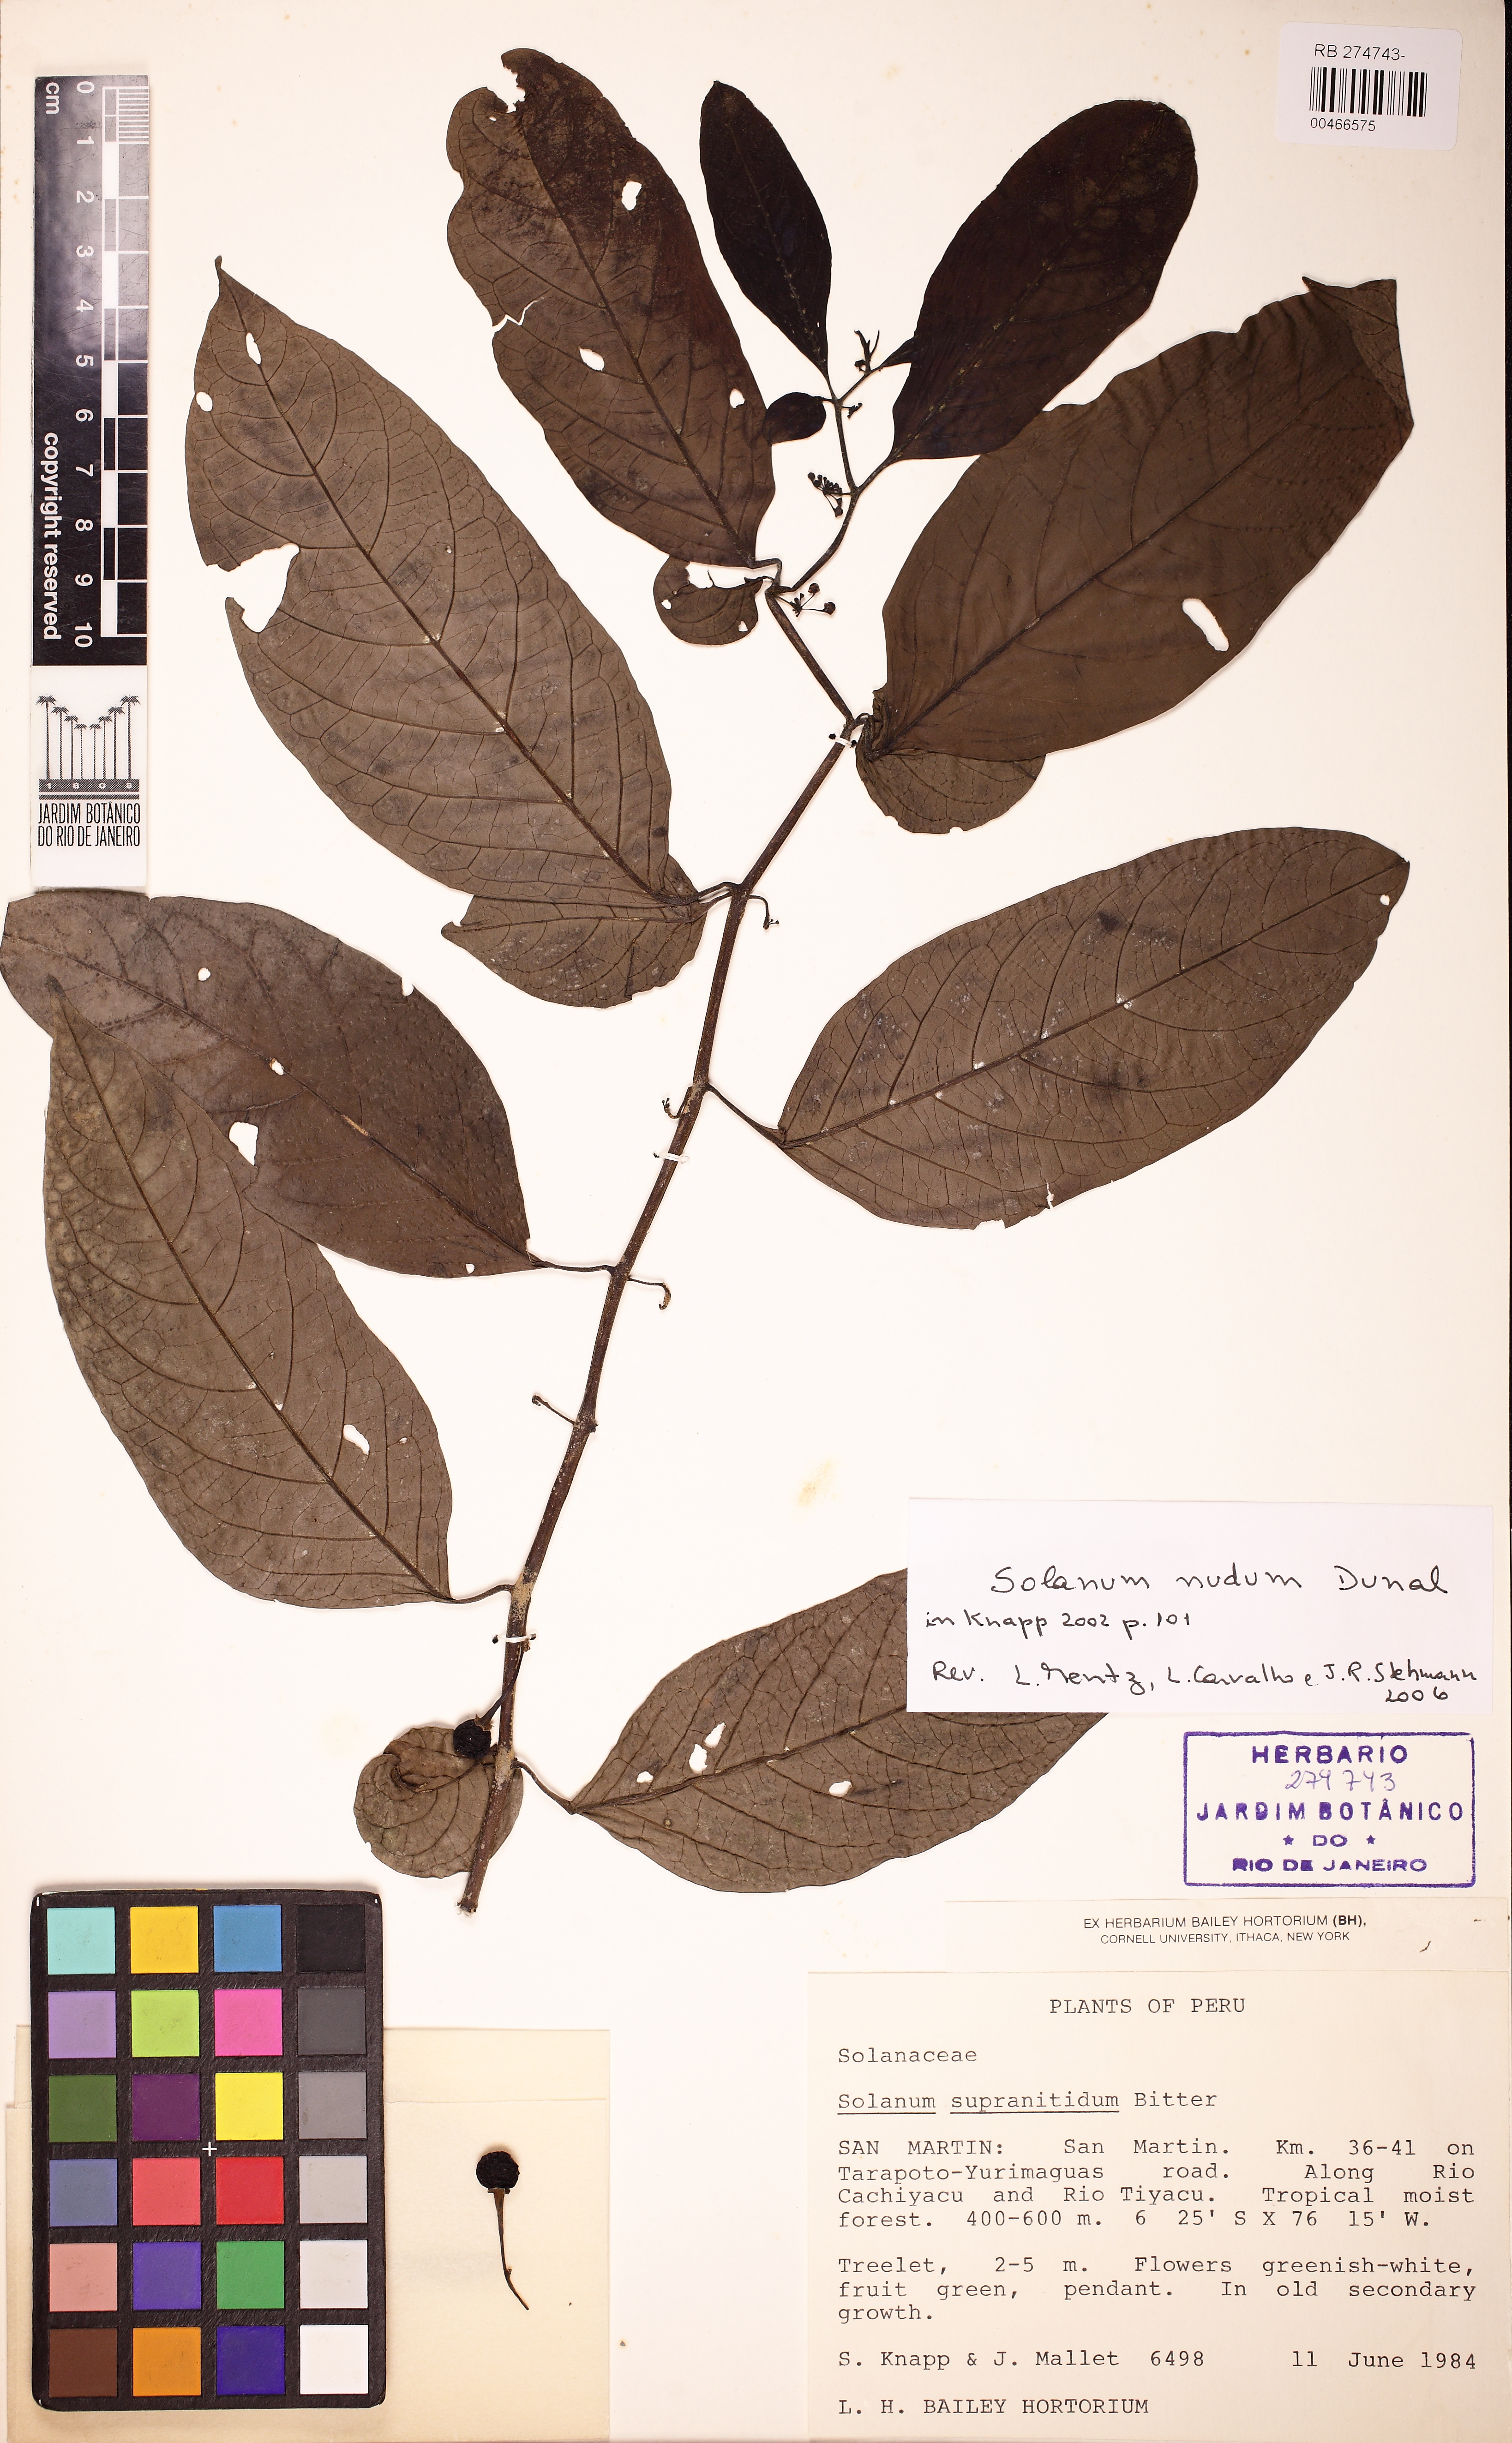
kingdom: Plantae
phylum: Tracheophyta
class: Magnoliopsida
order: Solanales
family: Solanaceae
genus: Solanum
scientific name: Solanum nudum
